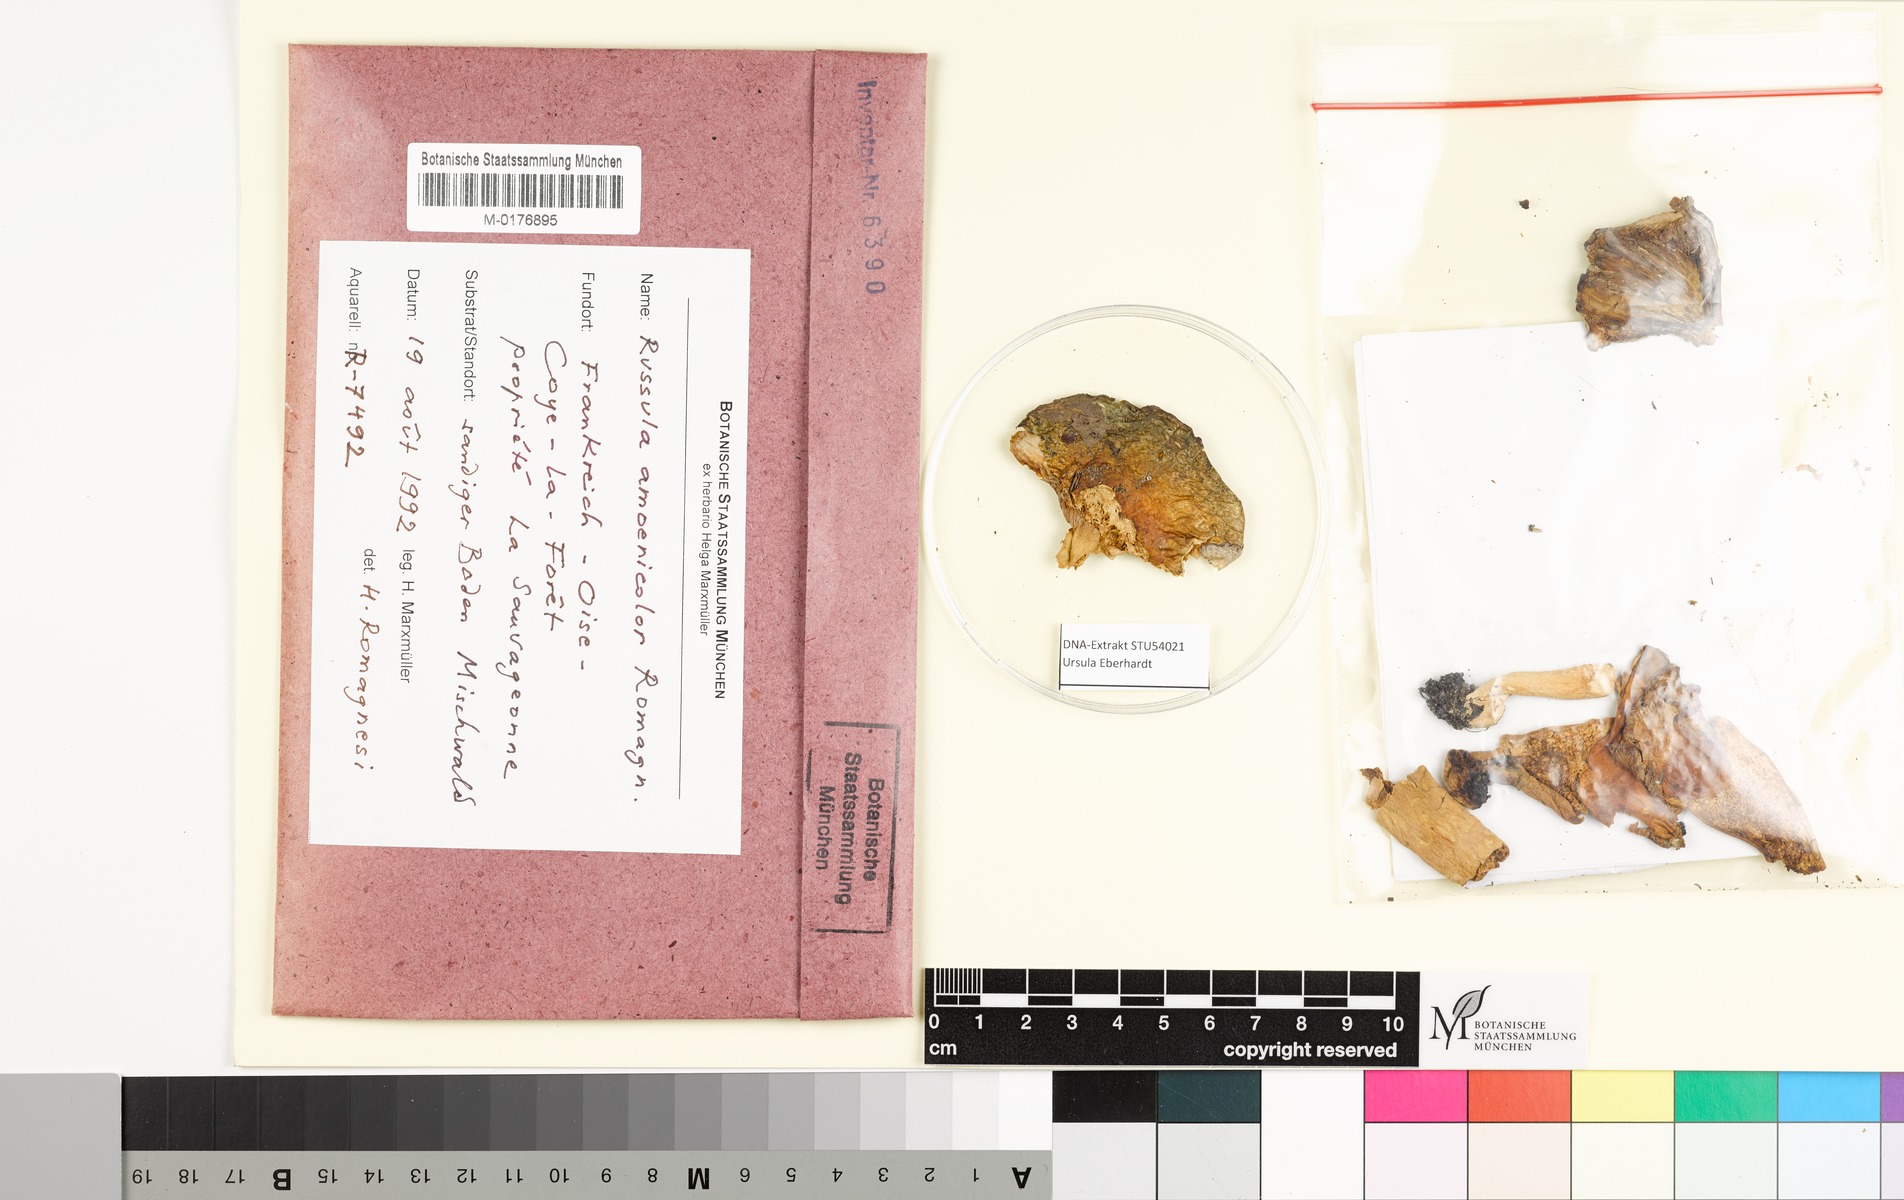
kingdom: Fungi
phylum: Basidiomycota
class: Agaricomycetes
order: Russulales
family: Russulaceae
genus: Russula
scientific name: Russula amoenicolor
